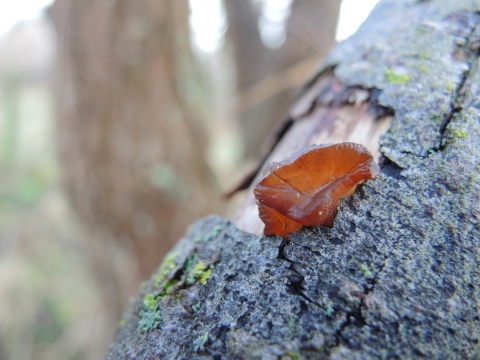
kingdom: Fungi
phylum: Basidiomycota
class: Agaricomycetes
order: Auriculariales
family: Auriculariaceae
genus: Exidia
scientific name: Exidia recisa
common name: pile-bævretop
